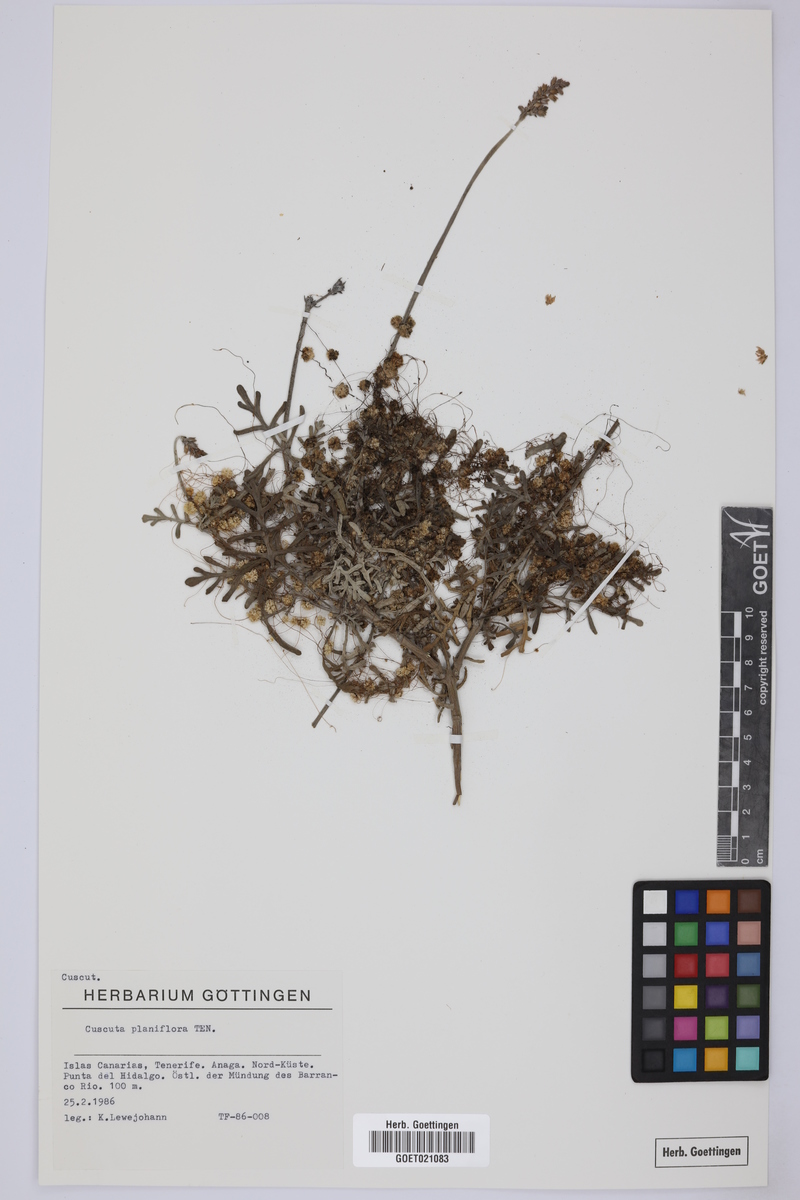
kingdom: Plantae
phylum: Tracheophyta
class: Magnoliopsida
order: Solanales
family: Convolvulaceae
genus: Cuscuta
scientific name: Cuscuta planiflora
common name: Small-seed alfalfa dodder
